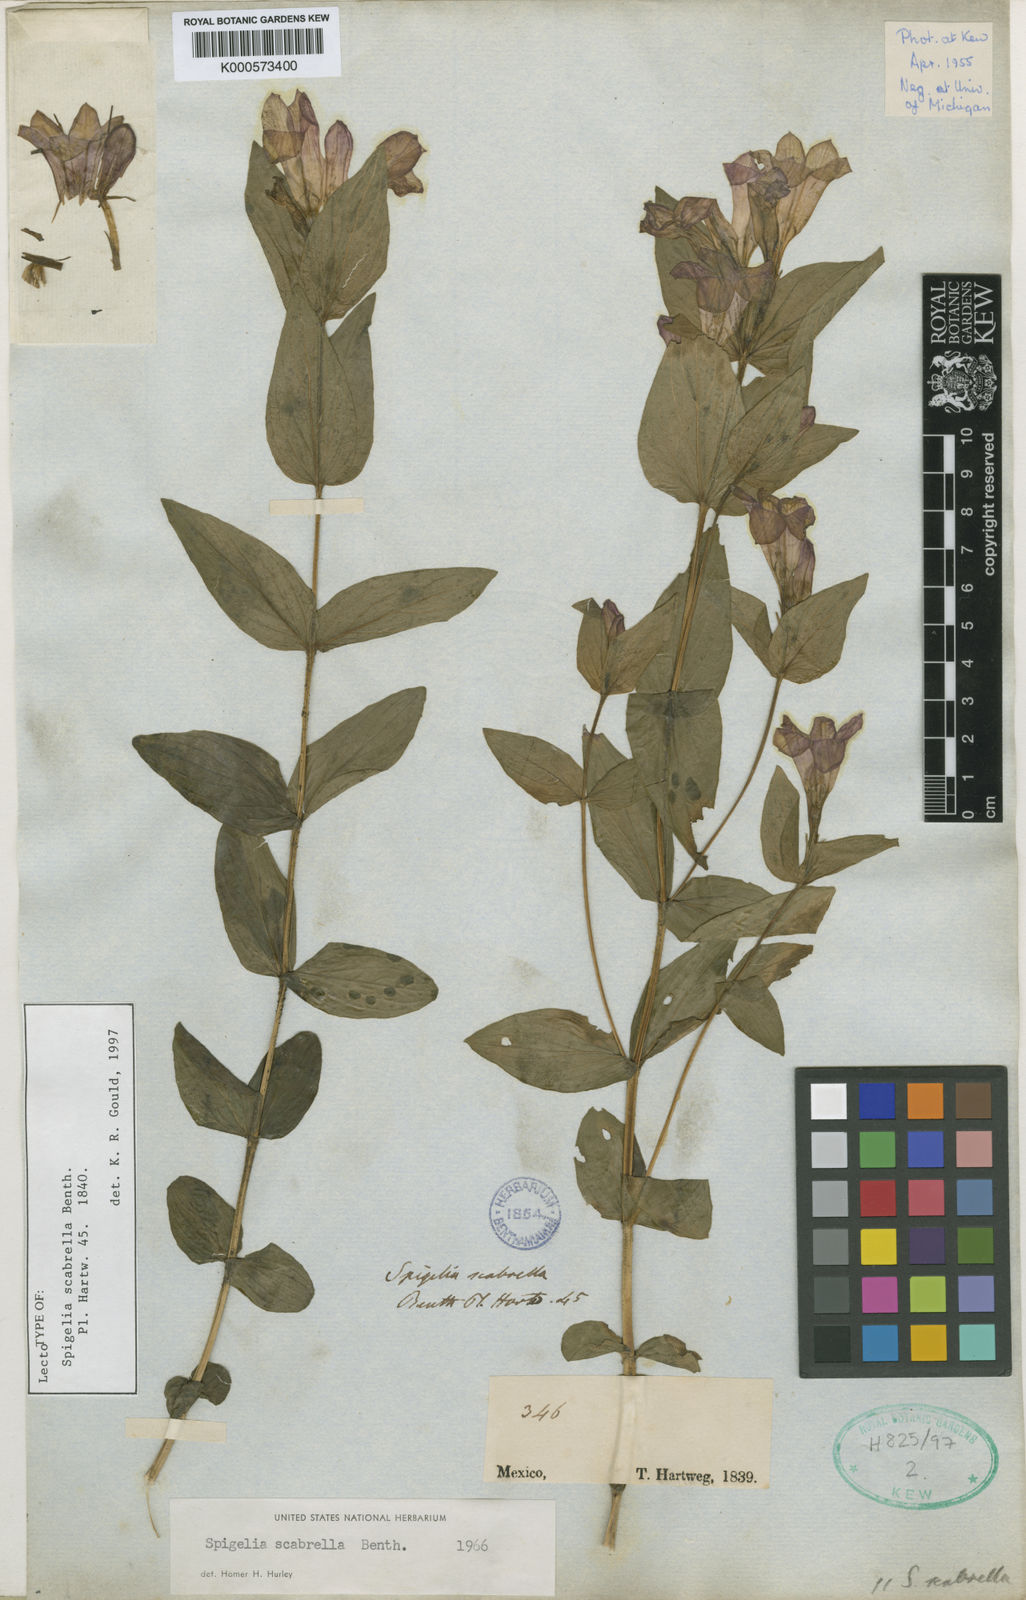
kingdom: Plantae
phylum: Tracheophyta
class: Magnoliopsida
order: Gentianales
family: Loganiaceae
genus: Spigelia
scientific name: Spigelia scabrella
